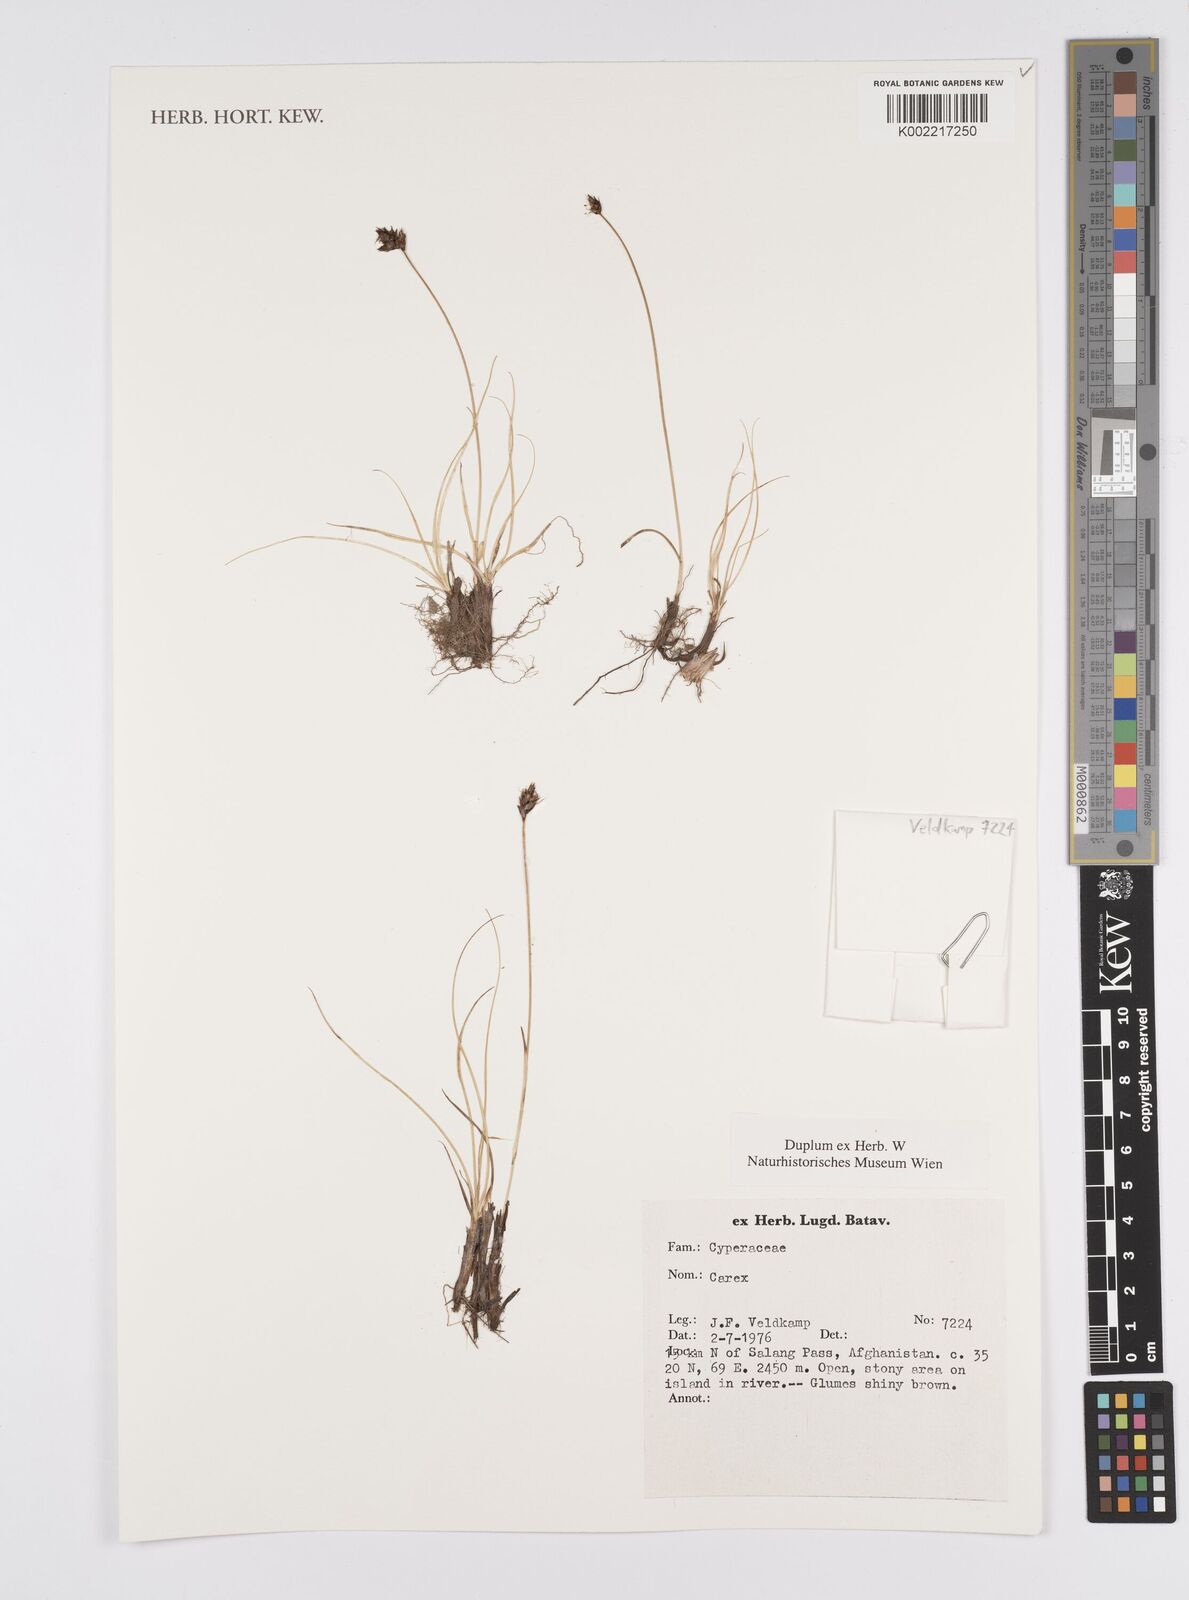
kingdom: Plantae
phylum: Tracheophyta
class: Liliopsida
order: Poales
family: Cyperaceae
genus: Carex
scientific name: Carex
